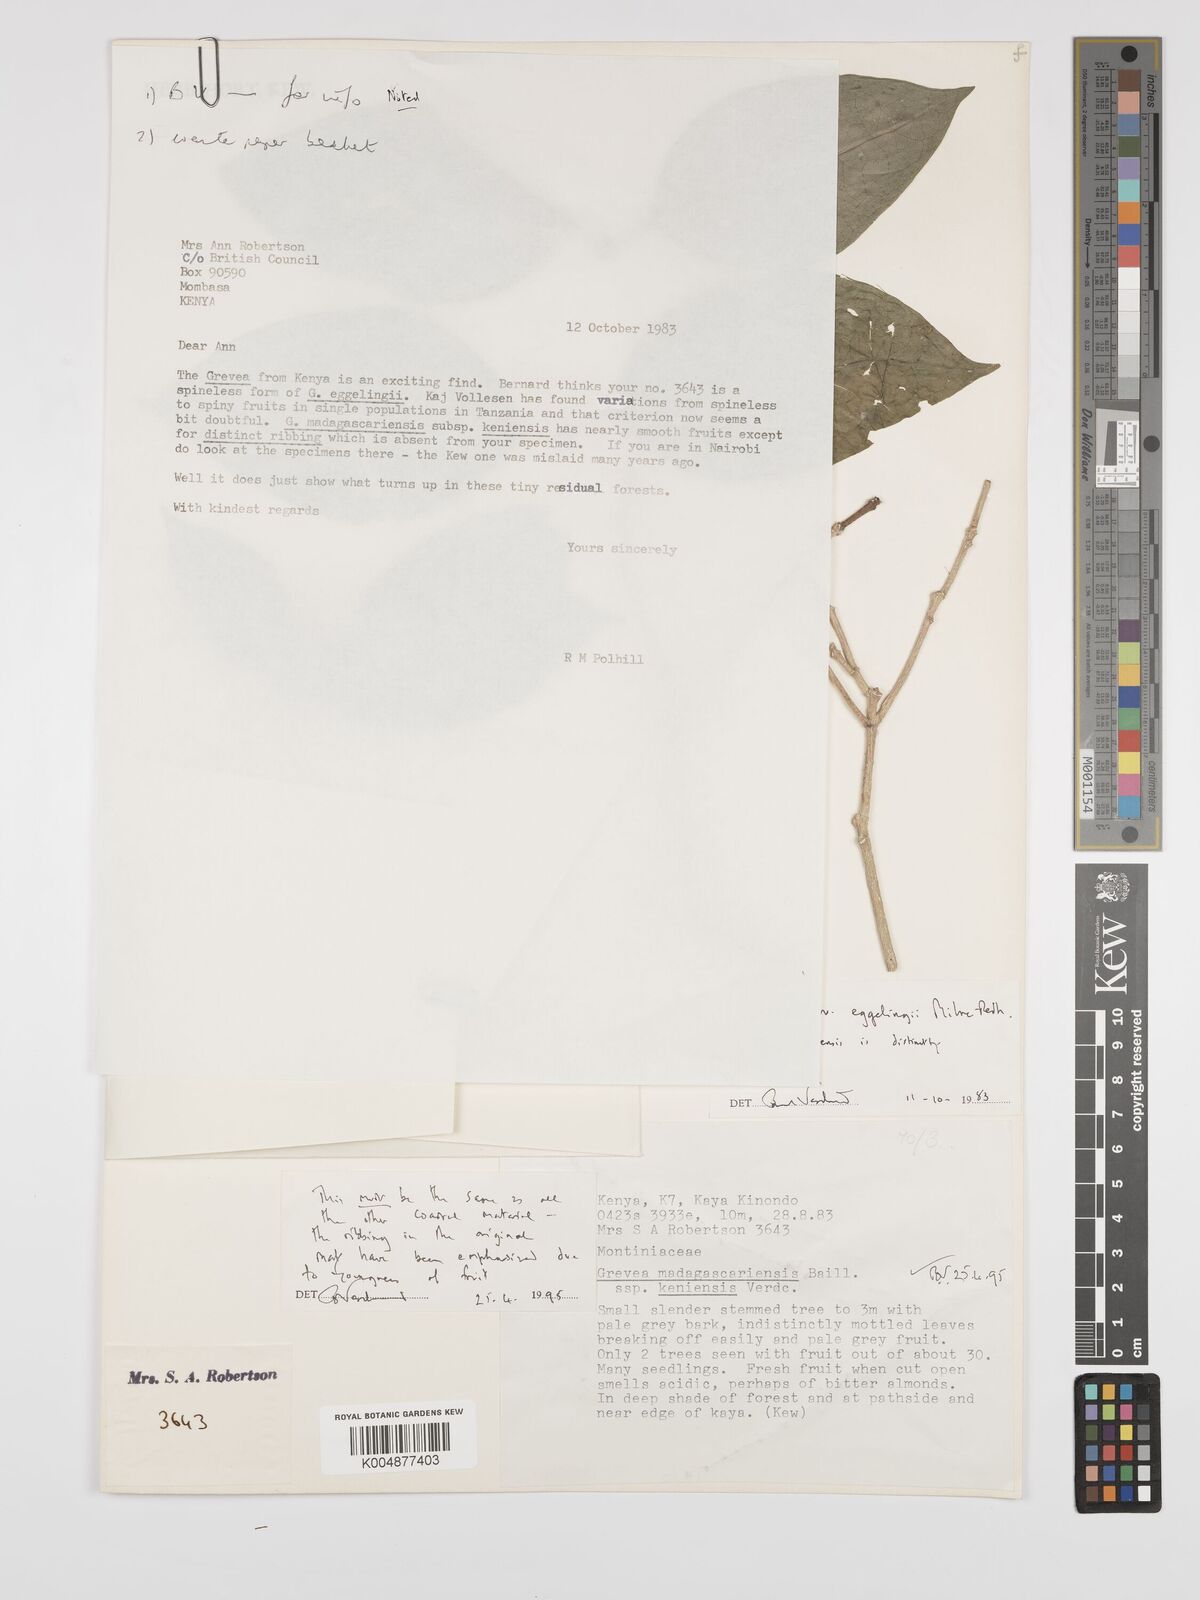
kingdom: Plantae
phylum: Tracheophyta
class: Magnoliopsida
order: Solanales
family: Montiniaceae
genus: Grevea
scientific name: Grevea
